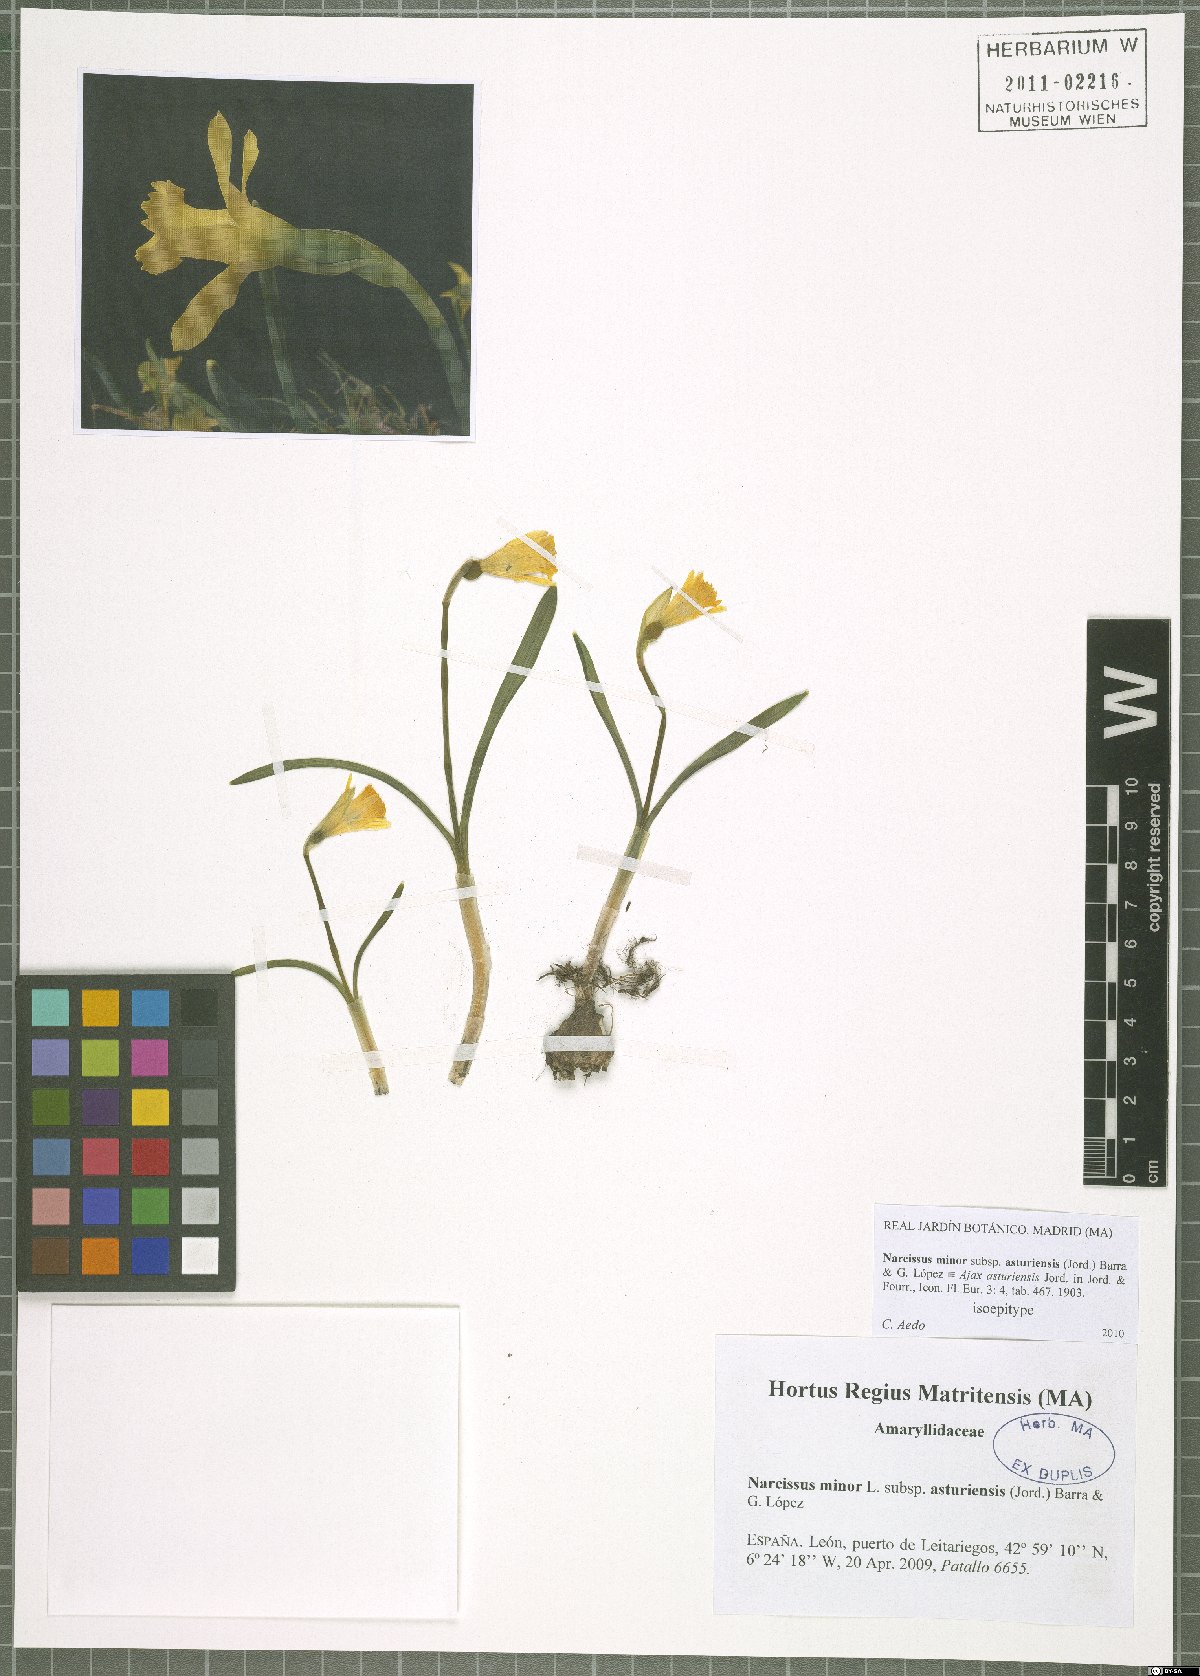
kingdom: Plantae
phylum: Tracheophyta
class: Liliopsida
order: Asparagales
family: Amaryllidaceae
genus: Narcissus
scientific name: Narcissus cuneiflorus
